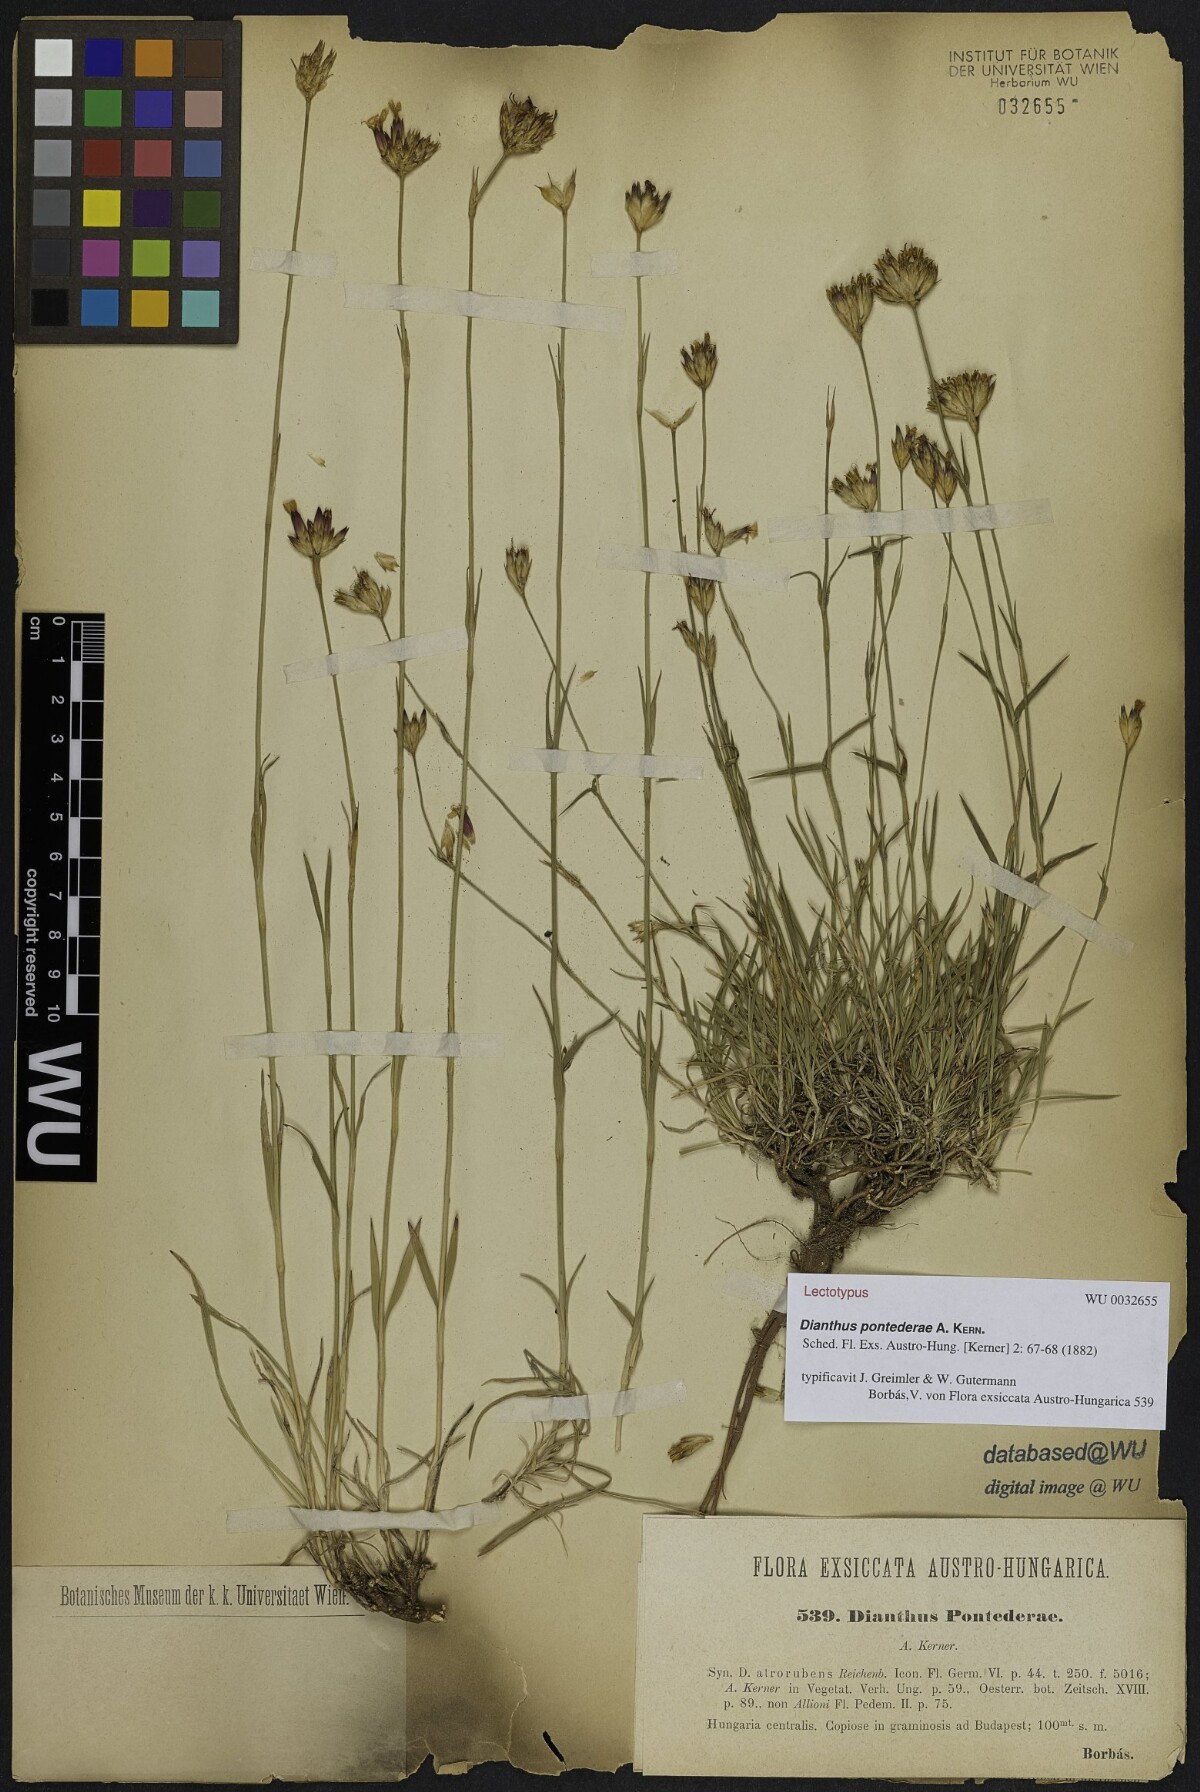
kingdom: Plantae
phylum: Tracheophyta
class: Magnoliopsida
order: Caryophyllales
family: Caryophyllaceae
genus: Dianthus
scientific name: Dianthus pontederae
